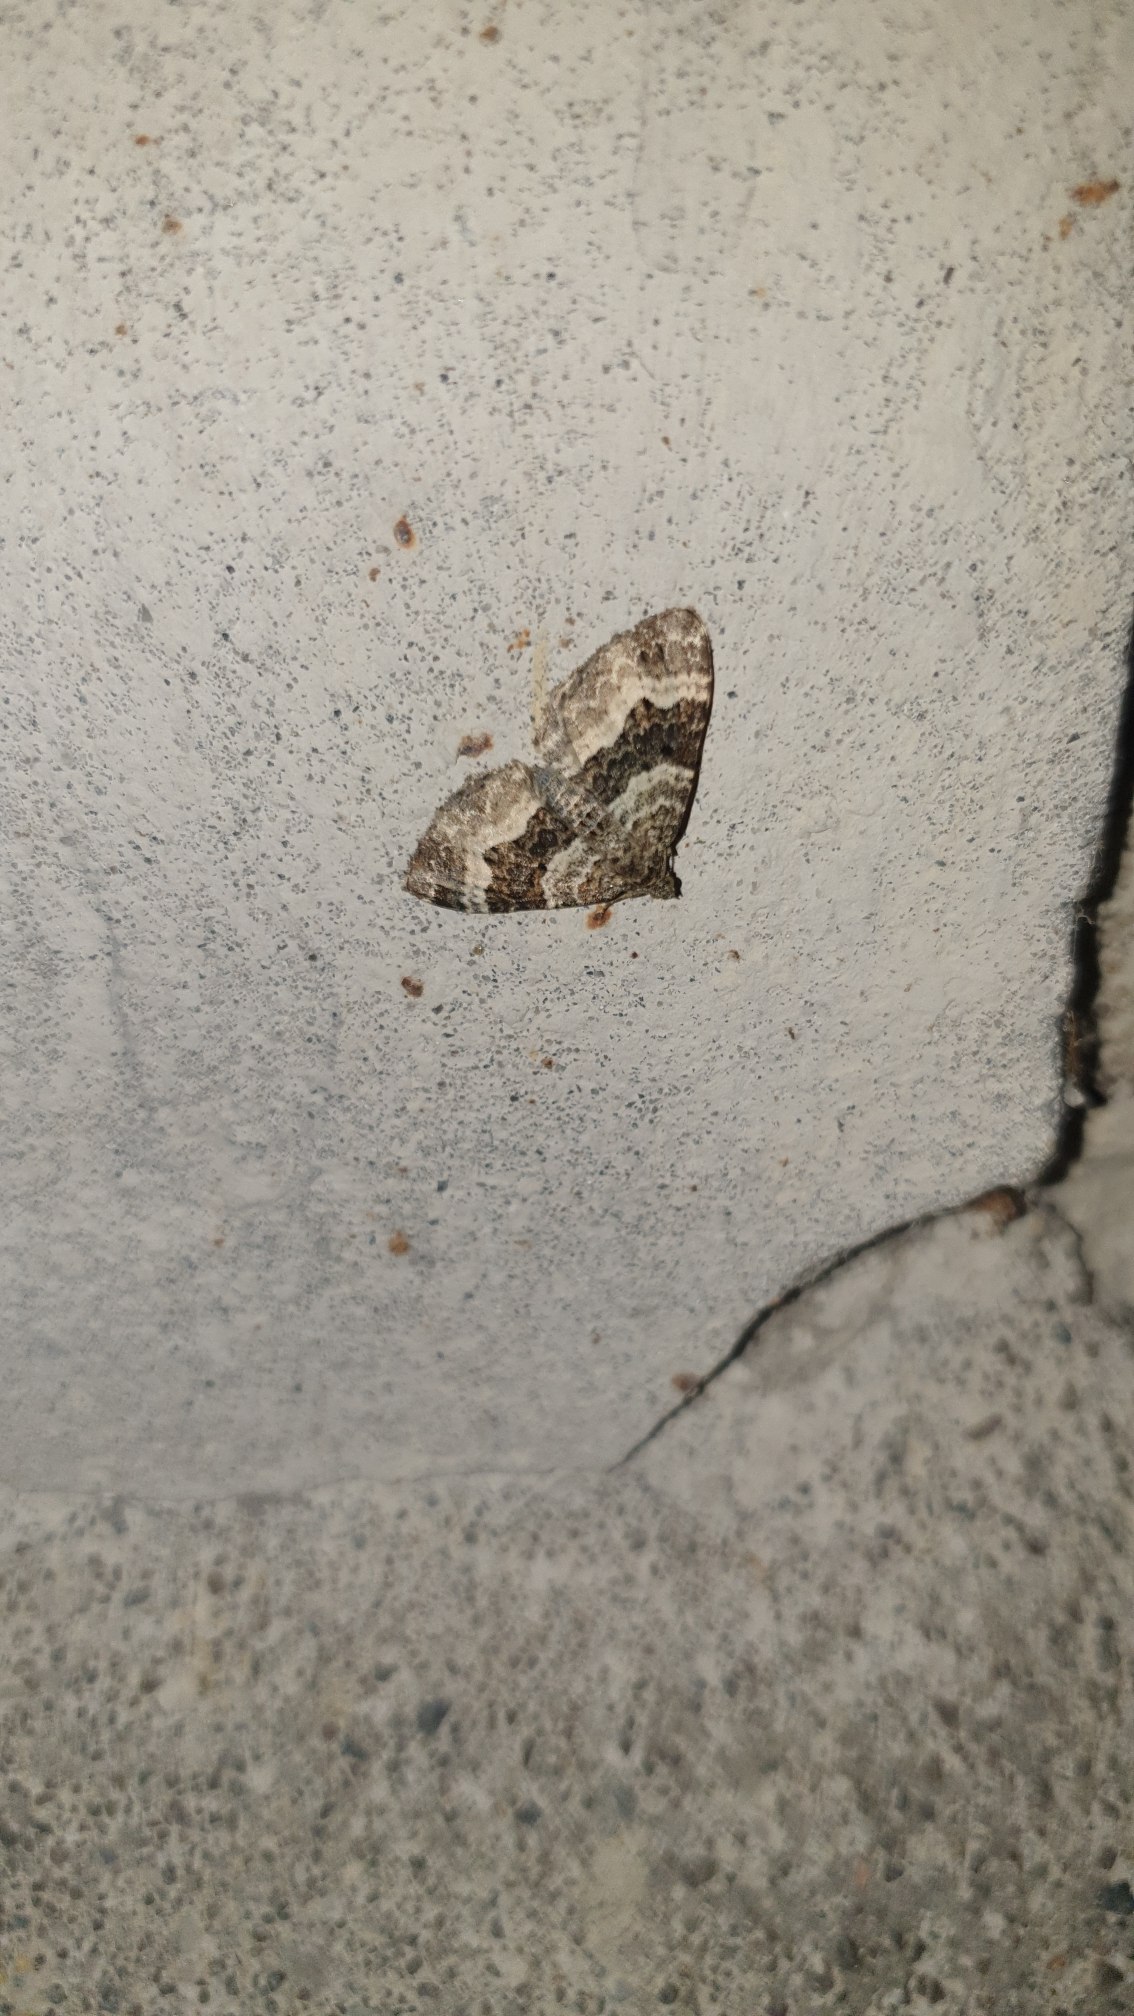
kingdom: Animalia
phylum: Arthropoda
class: Insecta
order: Lepidoptera
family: Geometridae
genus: Epirrhoe
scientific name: Epirrhoe alternata
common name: Almindelig bladmåler
